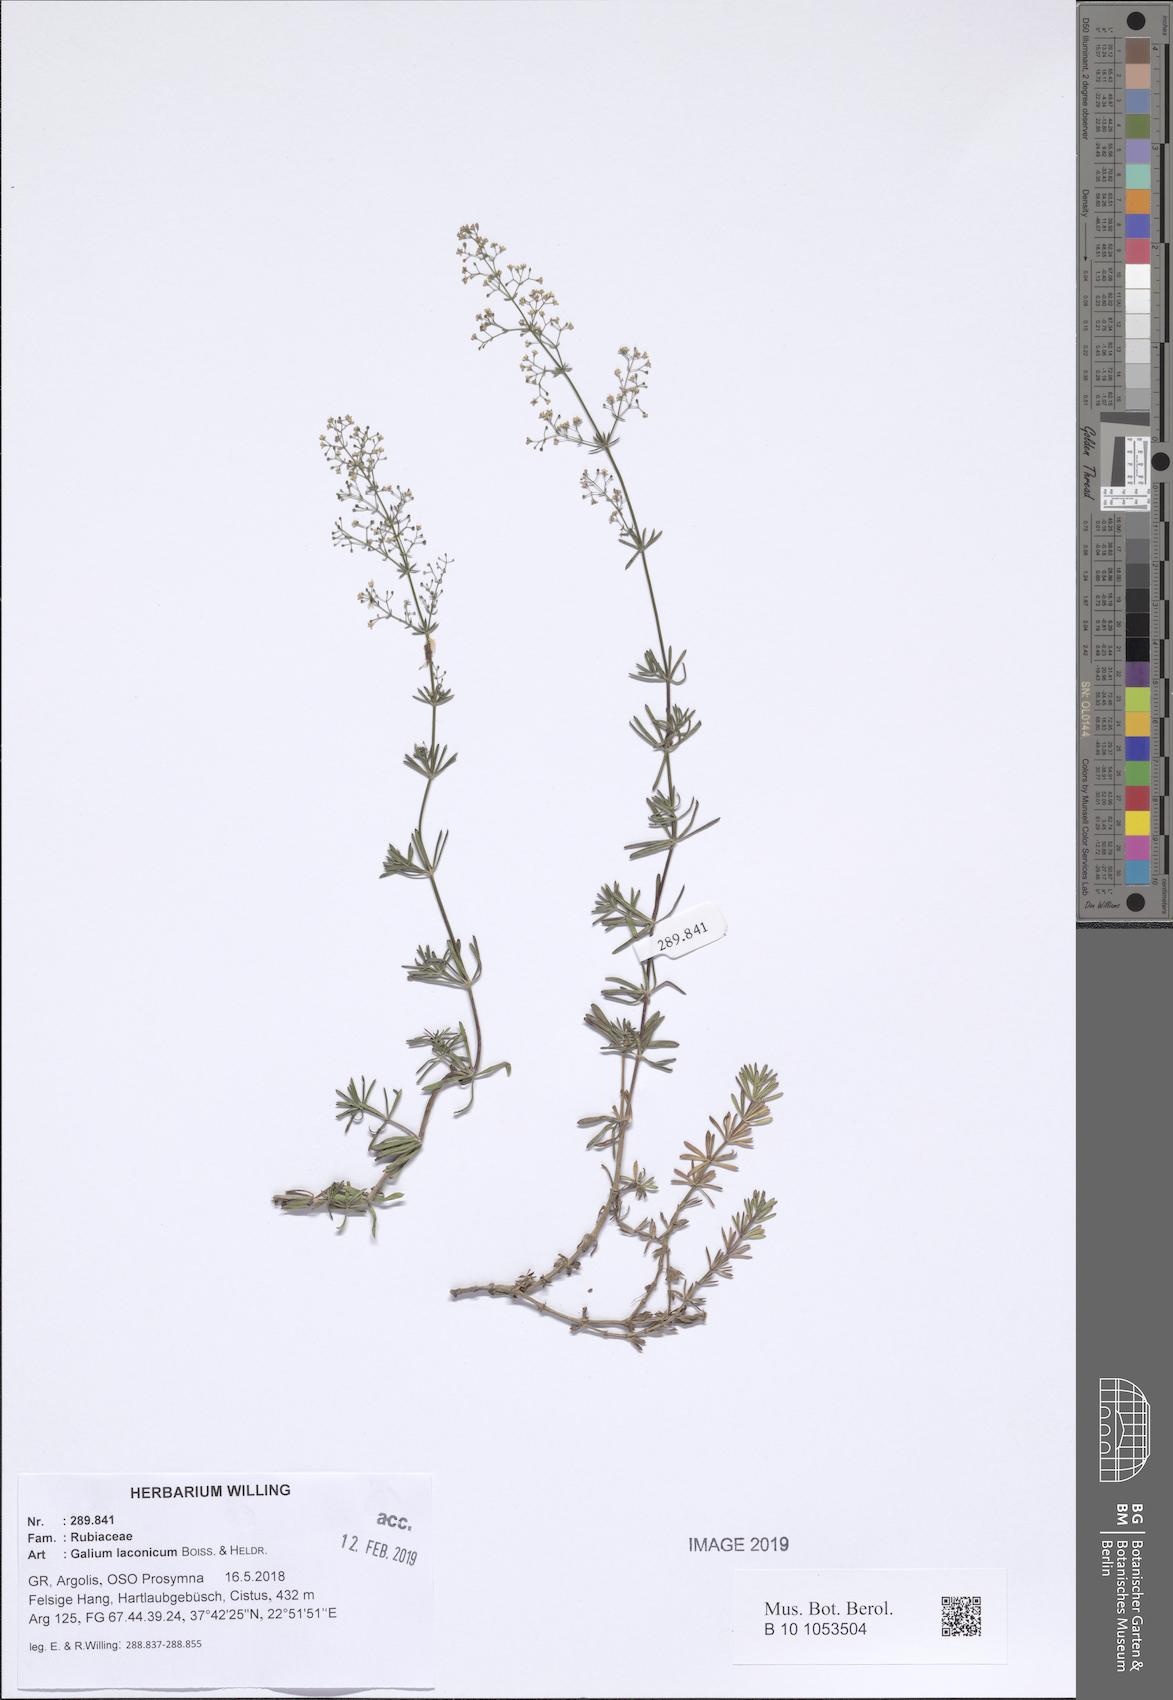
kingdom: Plantae
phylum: Tracheophyta
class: Magnoliopsida
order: Gentianales
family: Rubiaceae
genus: Galium
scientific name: Galium laconicum
